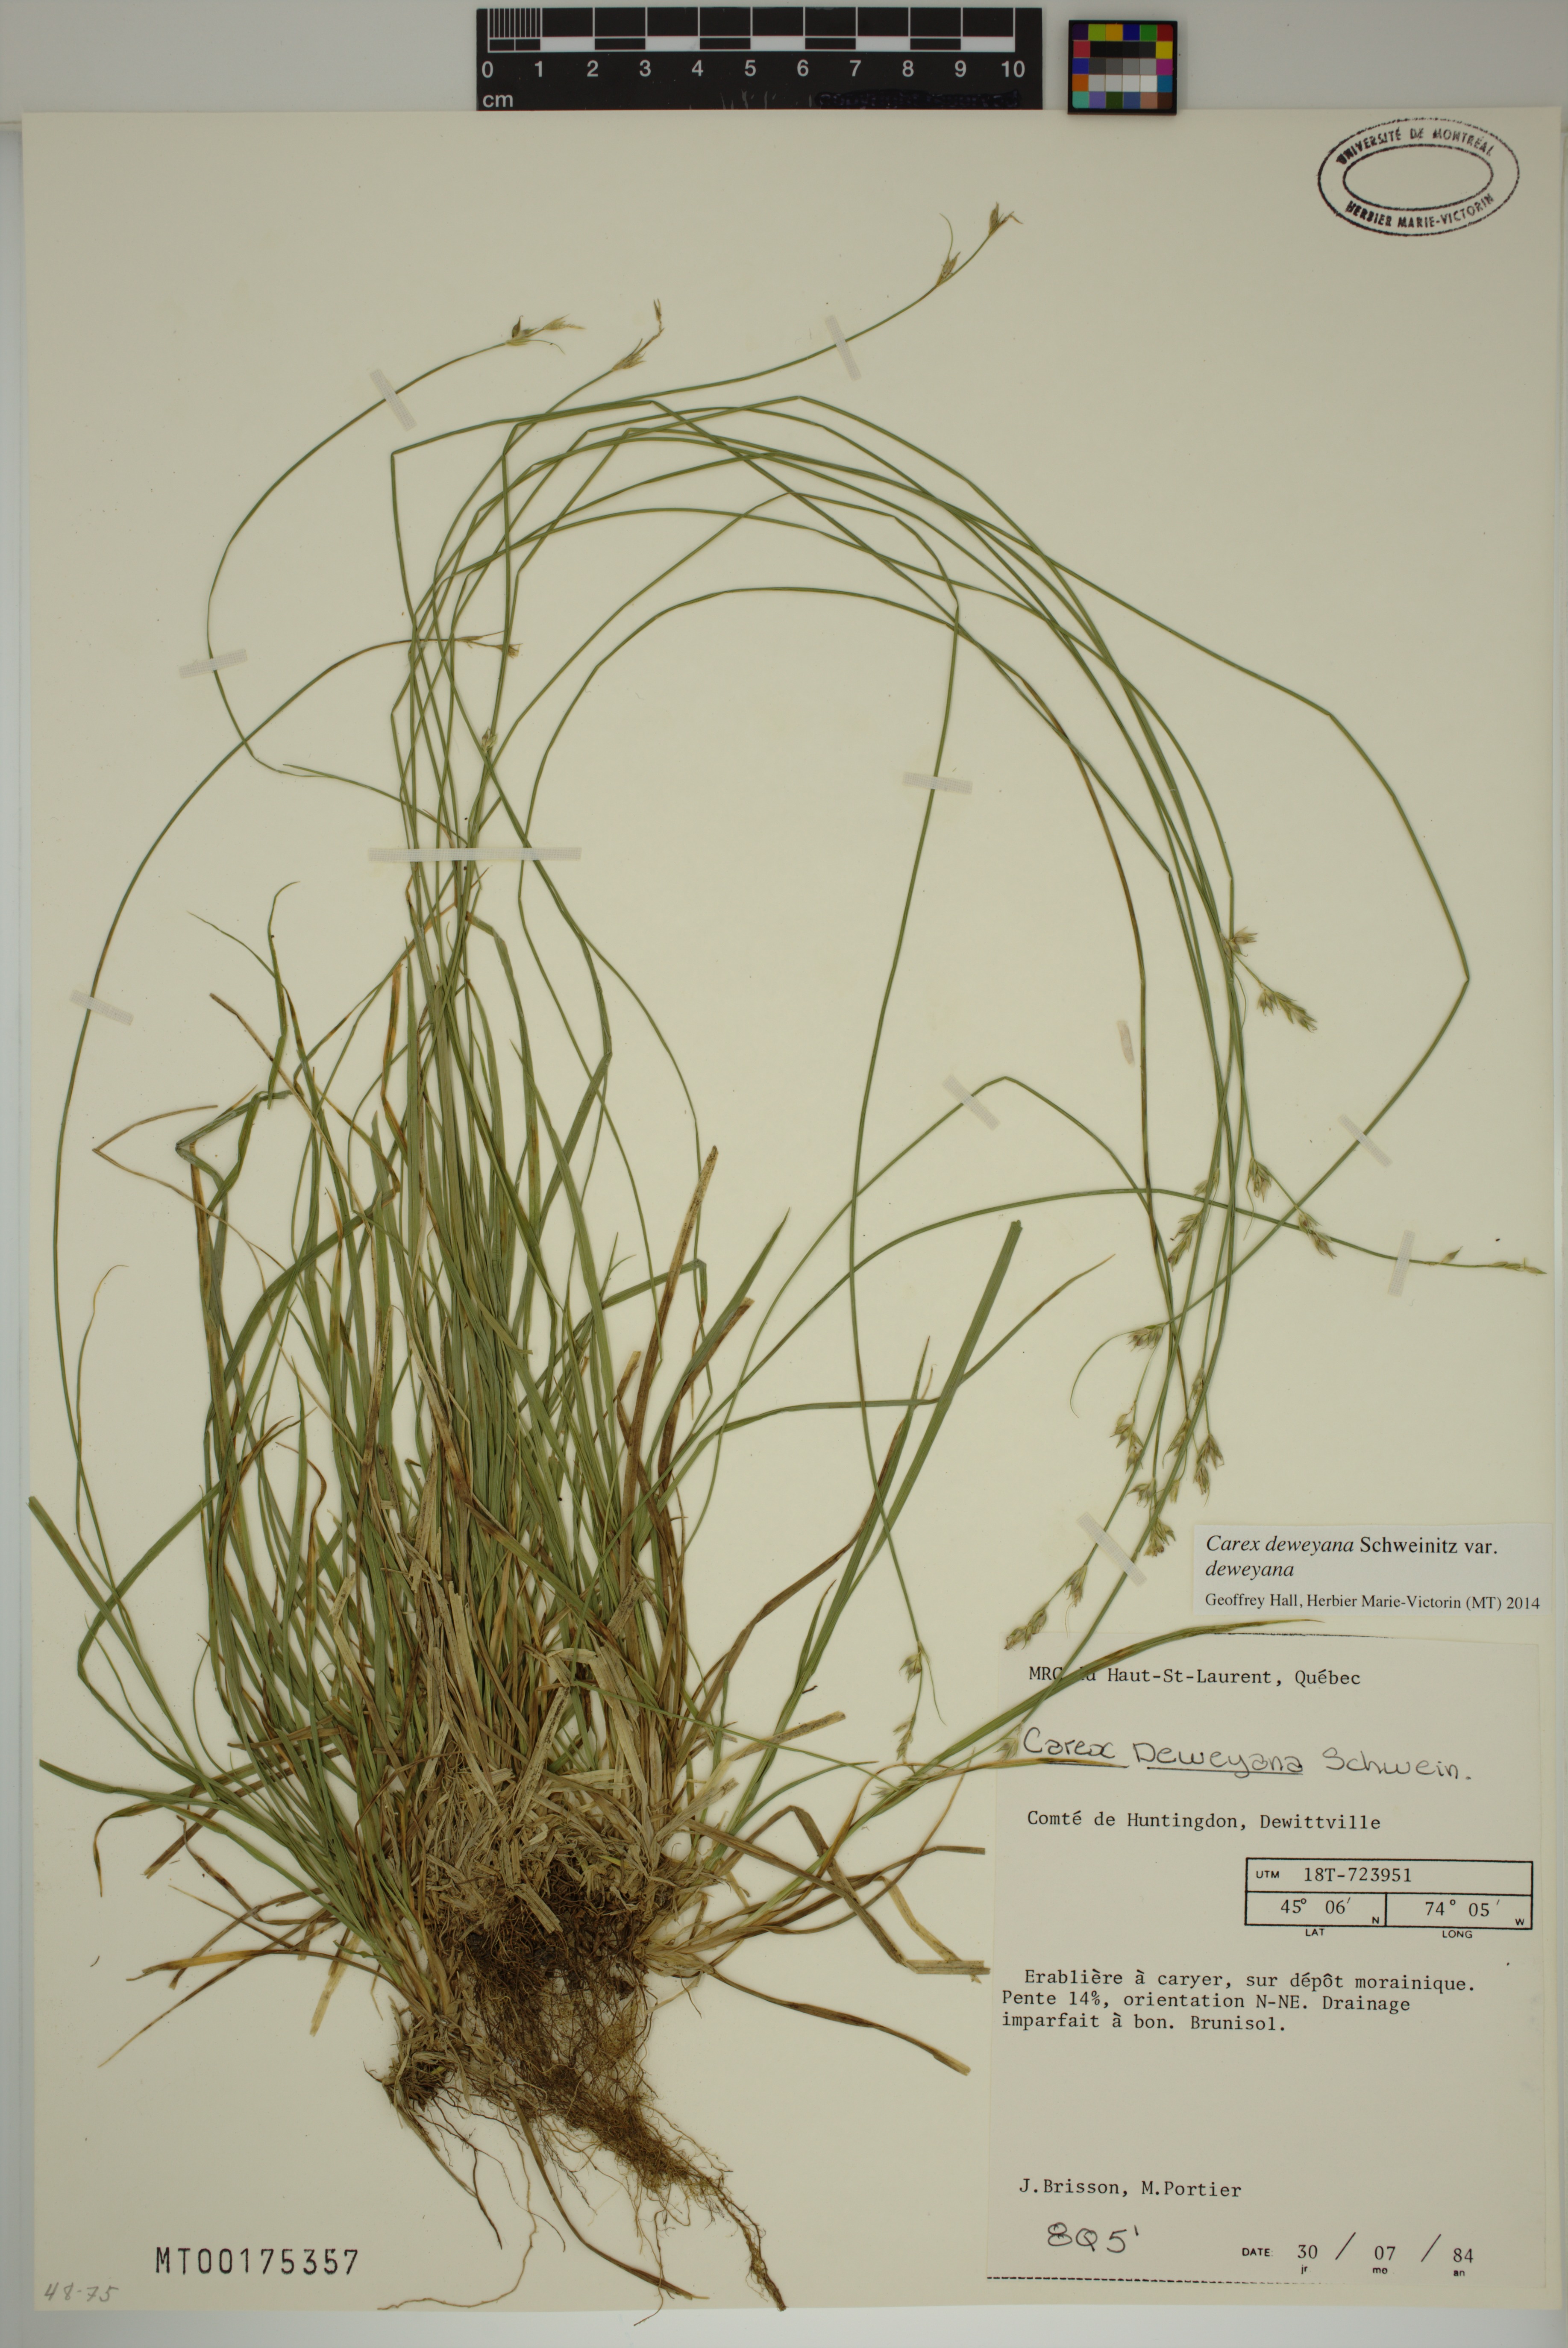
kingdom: Plantae
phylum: Tracheophyta
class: Liliopsida
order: Poales
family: Cyperaceae
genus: Carex
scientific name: Carex deweyana
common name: Dewey's sedge
